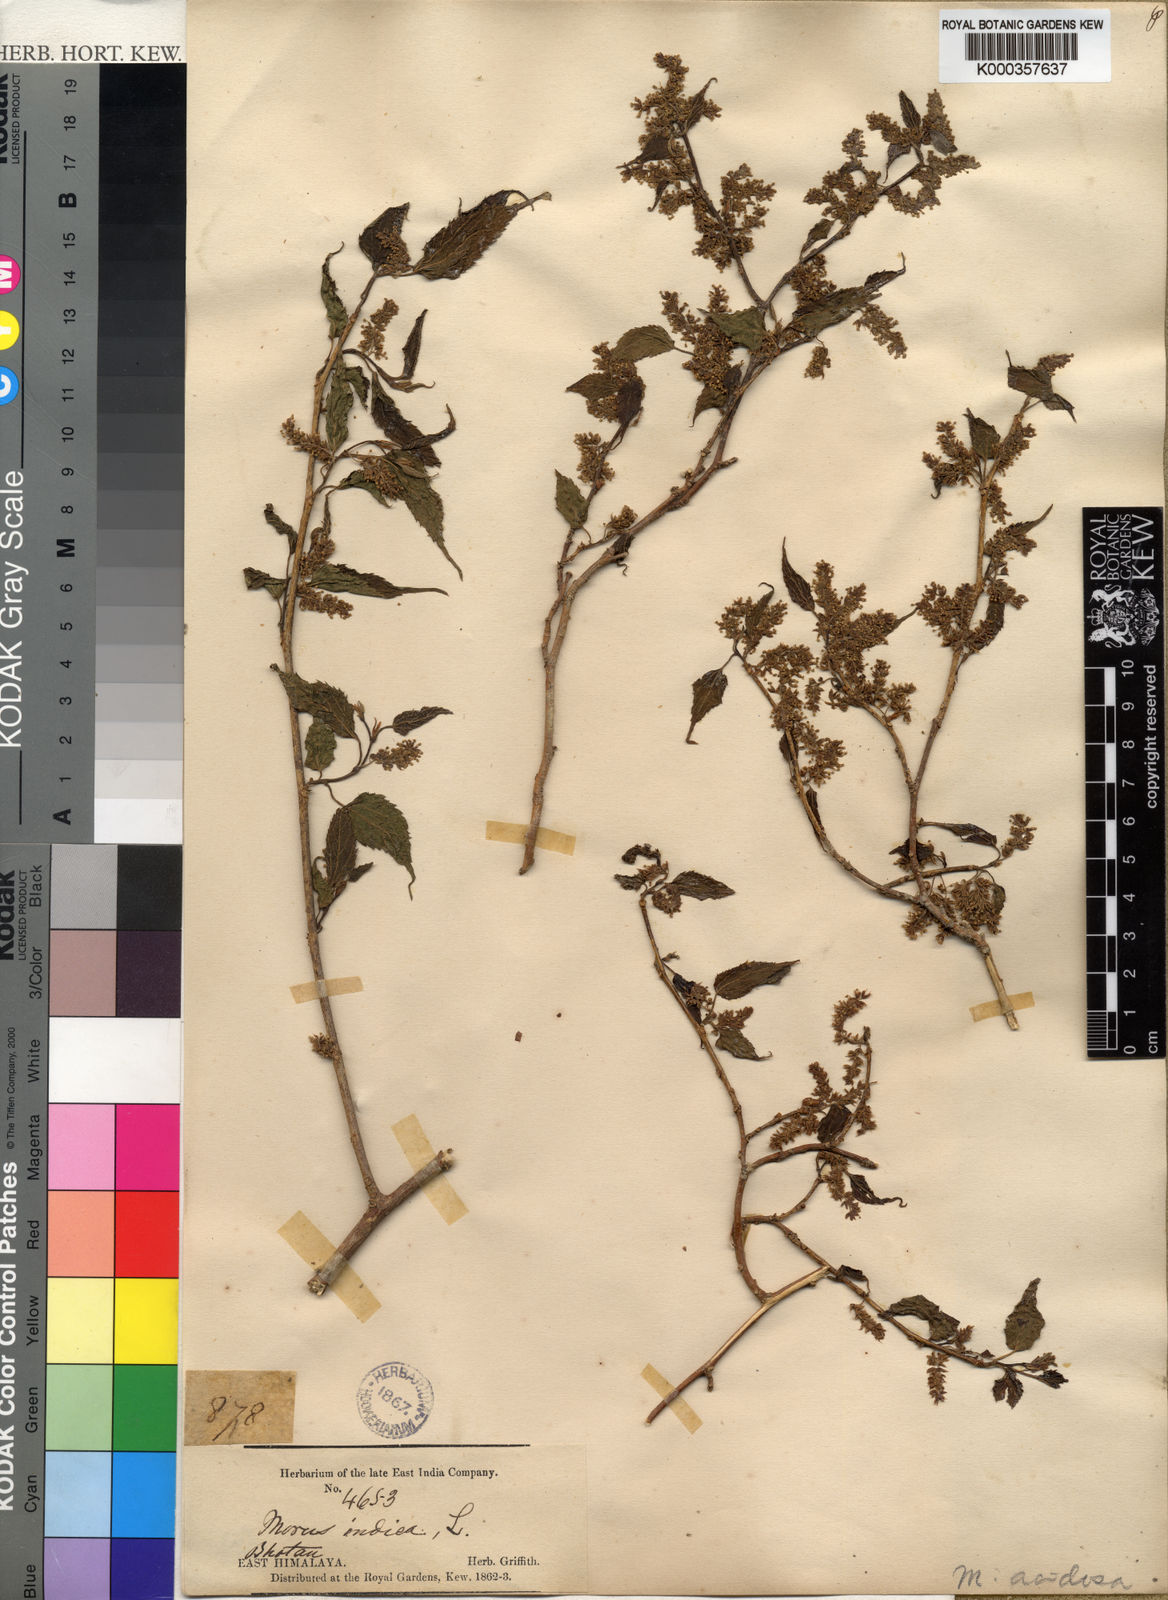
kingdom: Plantae
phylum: Tracheophyta
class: Magnoliopsida
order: Rosales
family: Moraceae
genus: Morus
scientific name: Morus indica
